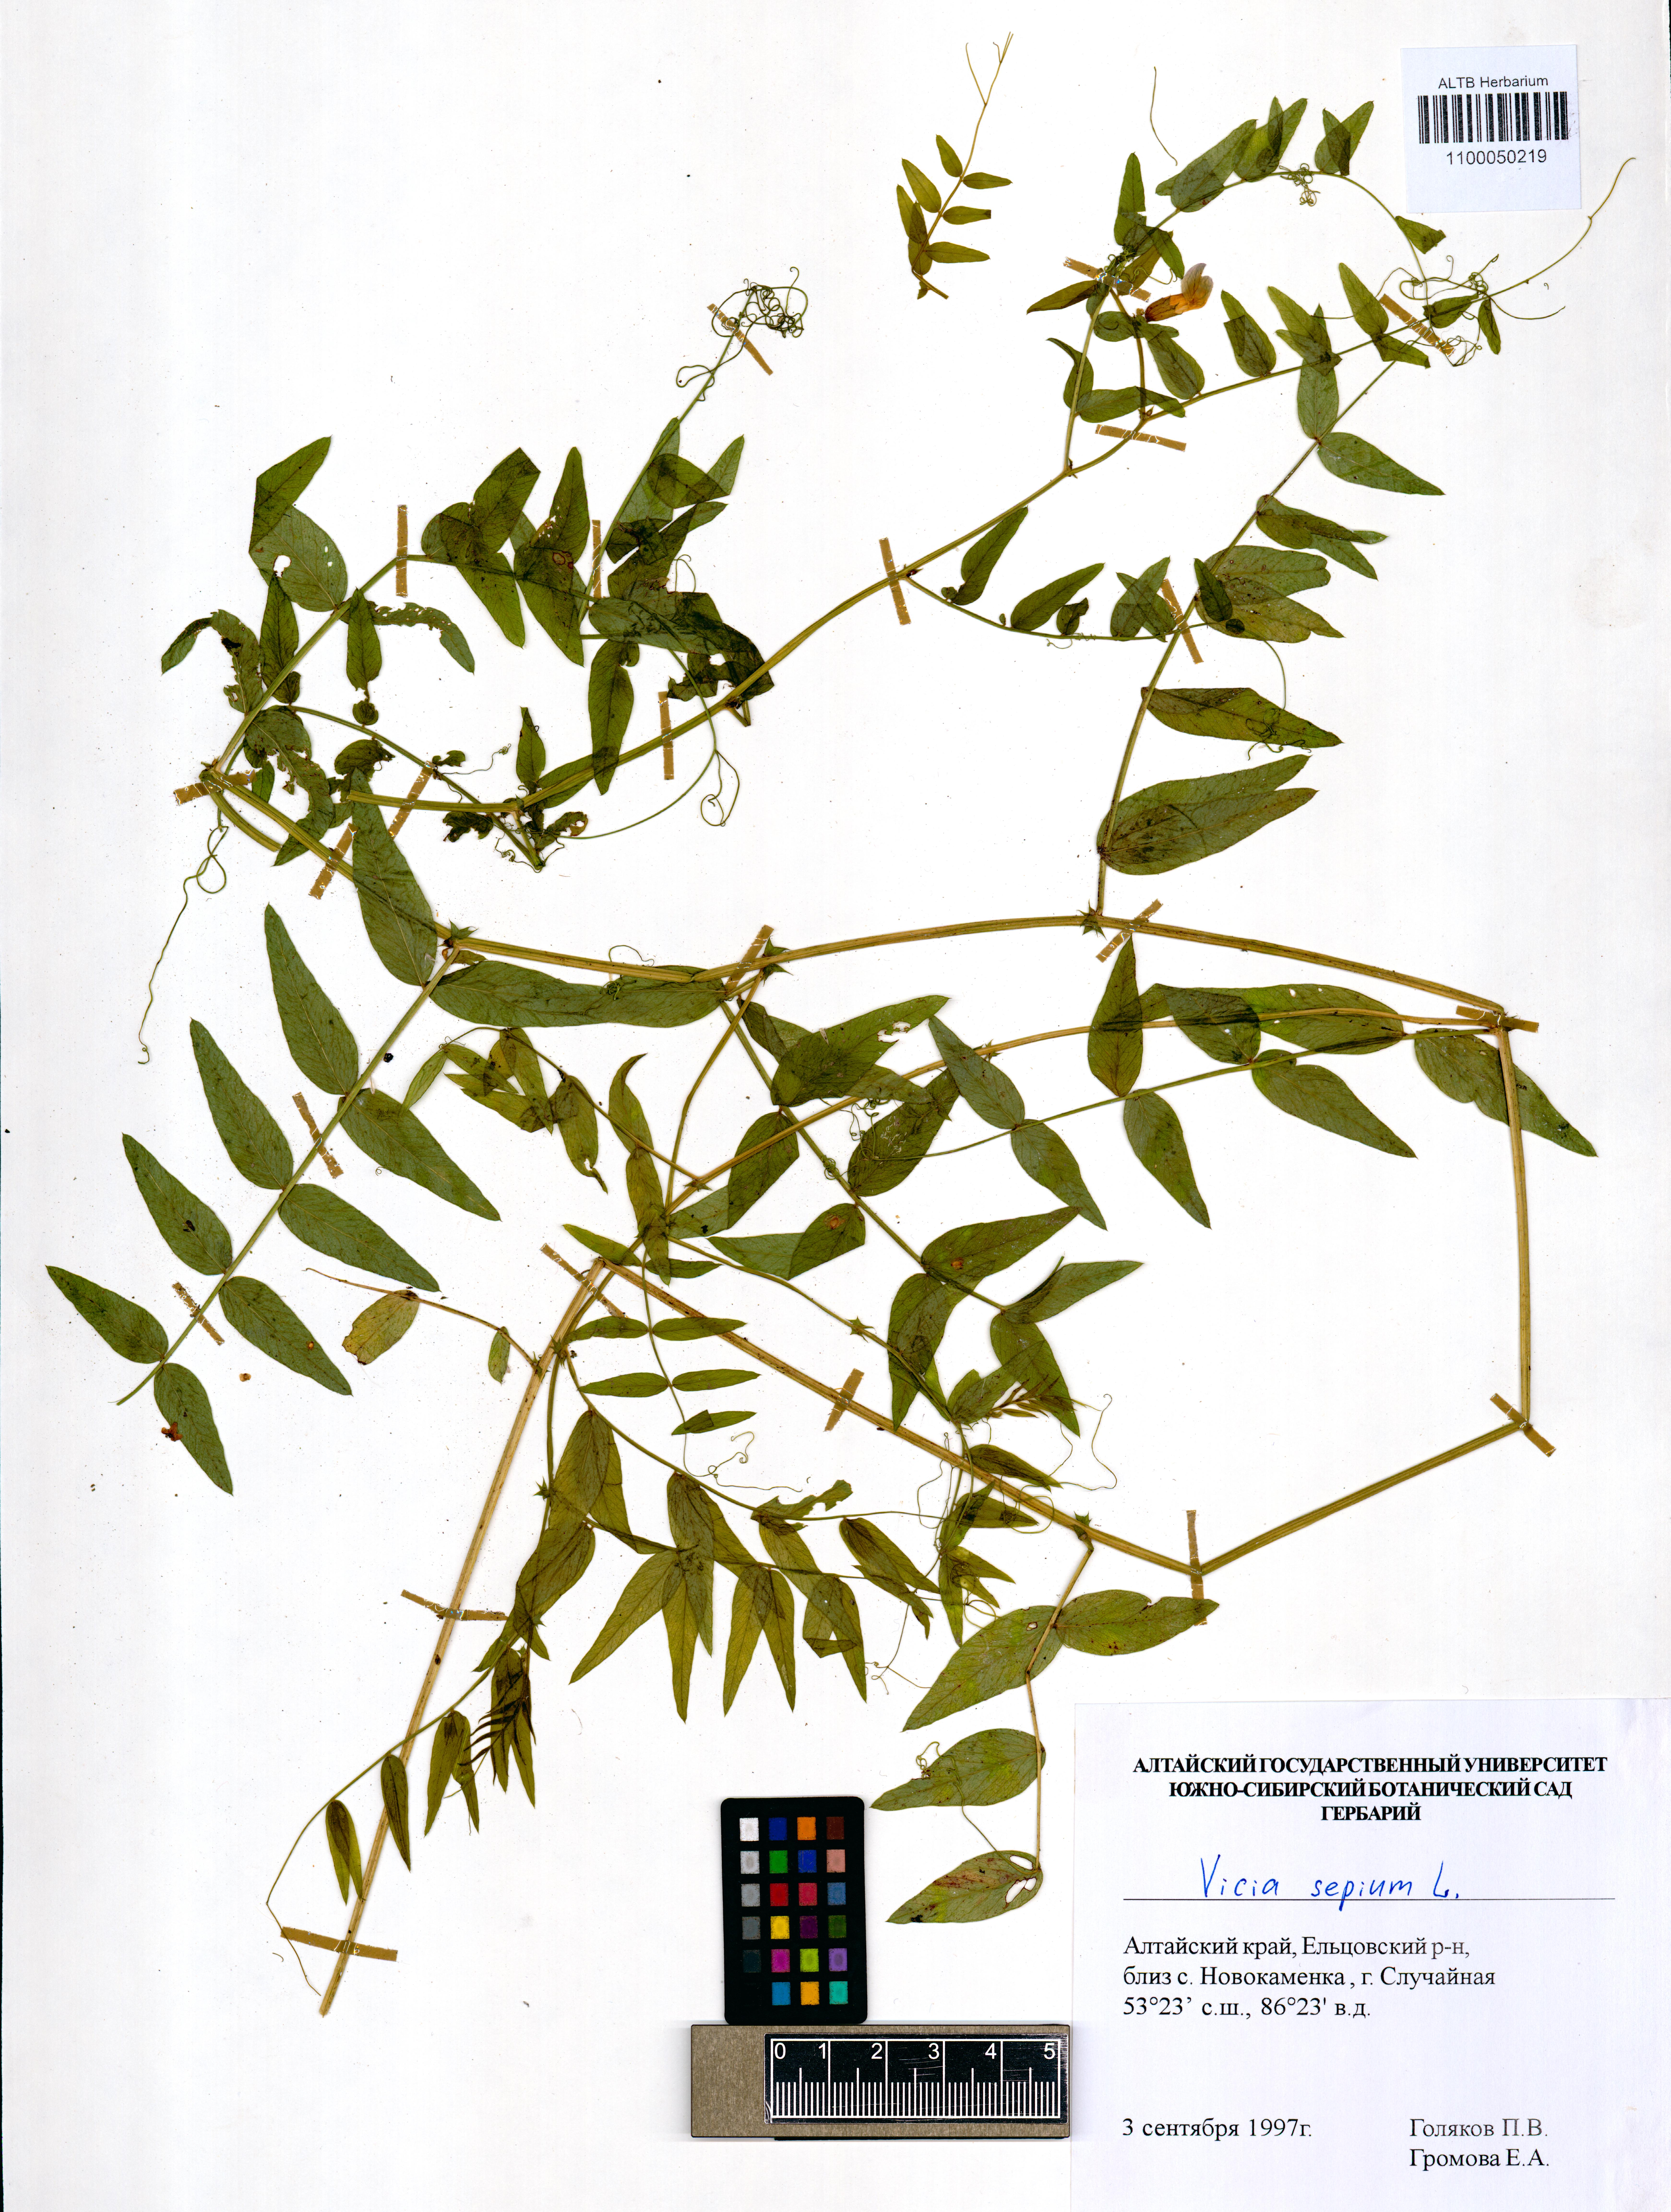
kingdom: Plantae
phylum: Tracheophyta
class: Magnoliopsida
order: Fabales
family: Fabaceae
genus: Vicia
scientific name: Vicia sepium
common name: Bush vetch
